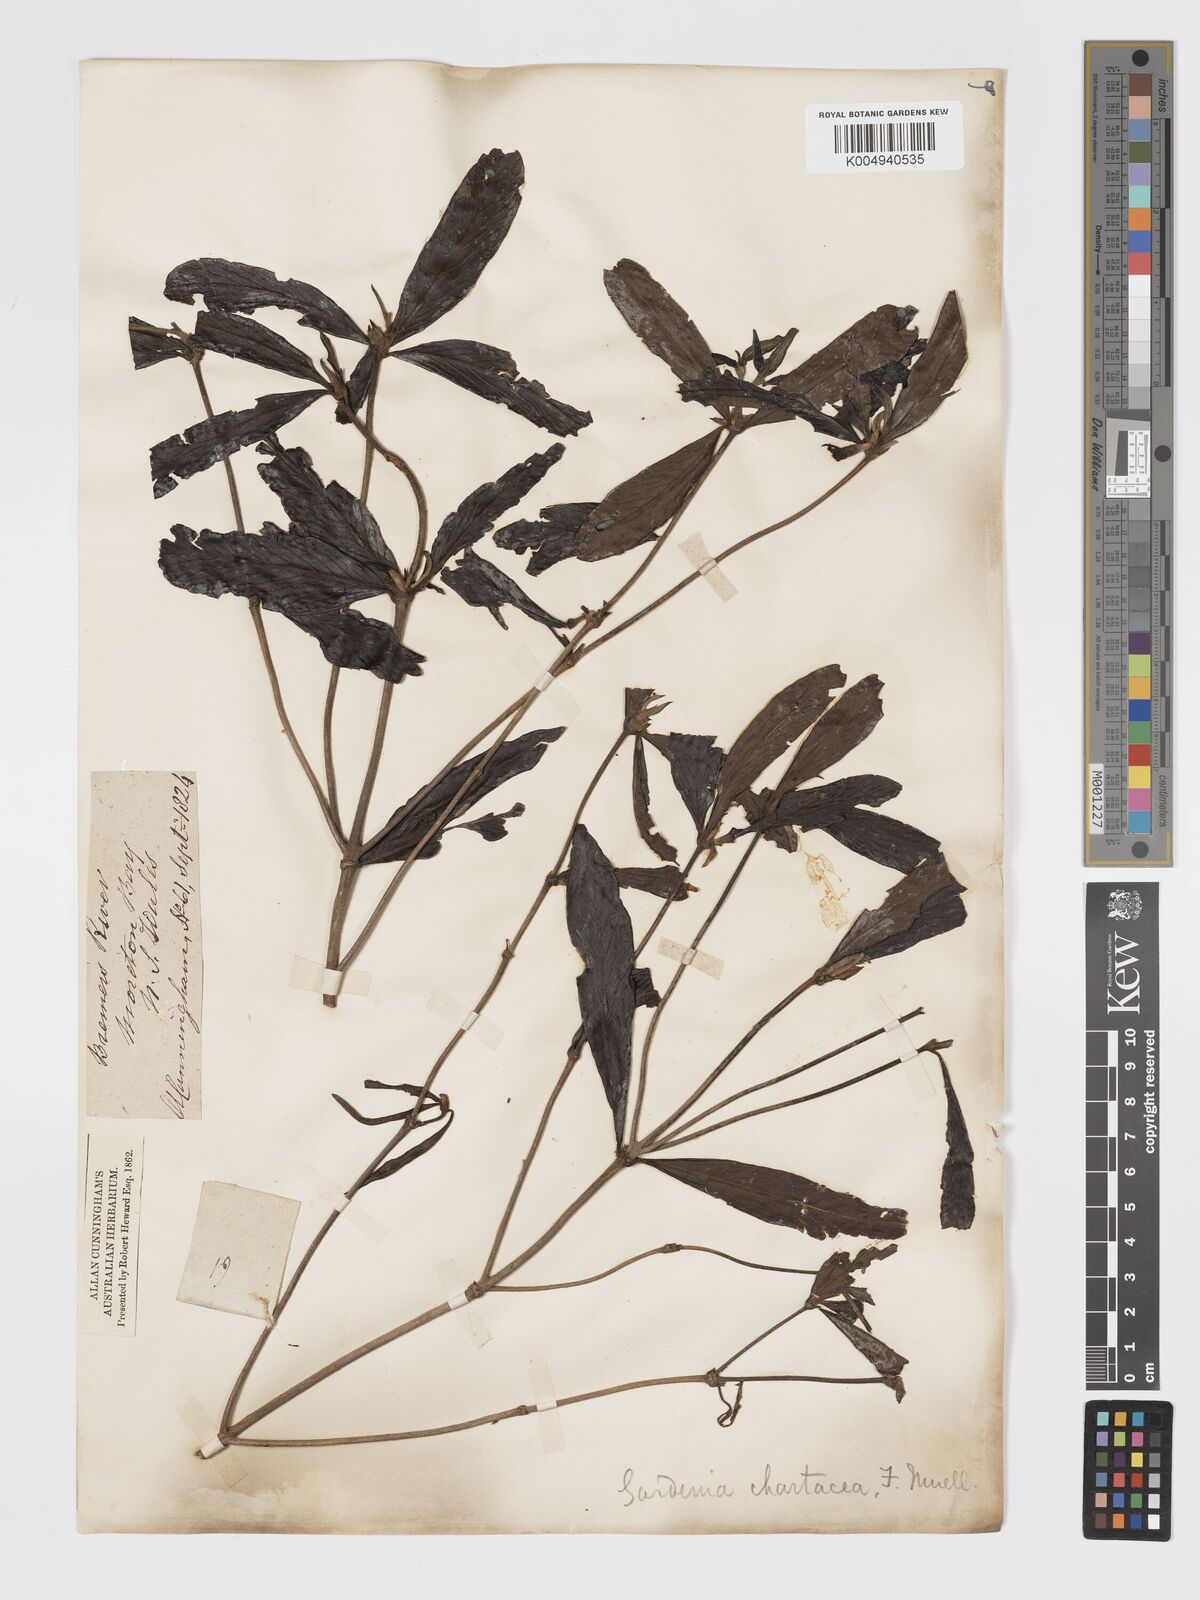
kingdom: Plantae
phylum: Tracheophyta
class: Magnoliopsida
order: Gentianales
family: Rubiaceae
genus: Atractocarpus
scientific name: Atractocarpus chartaceus
